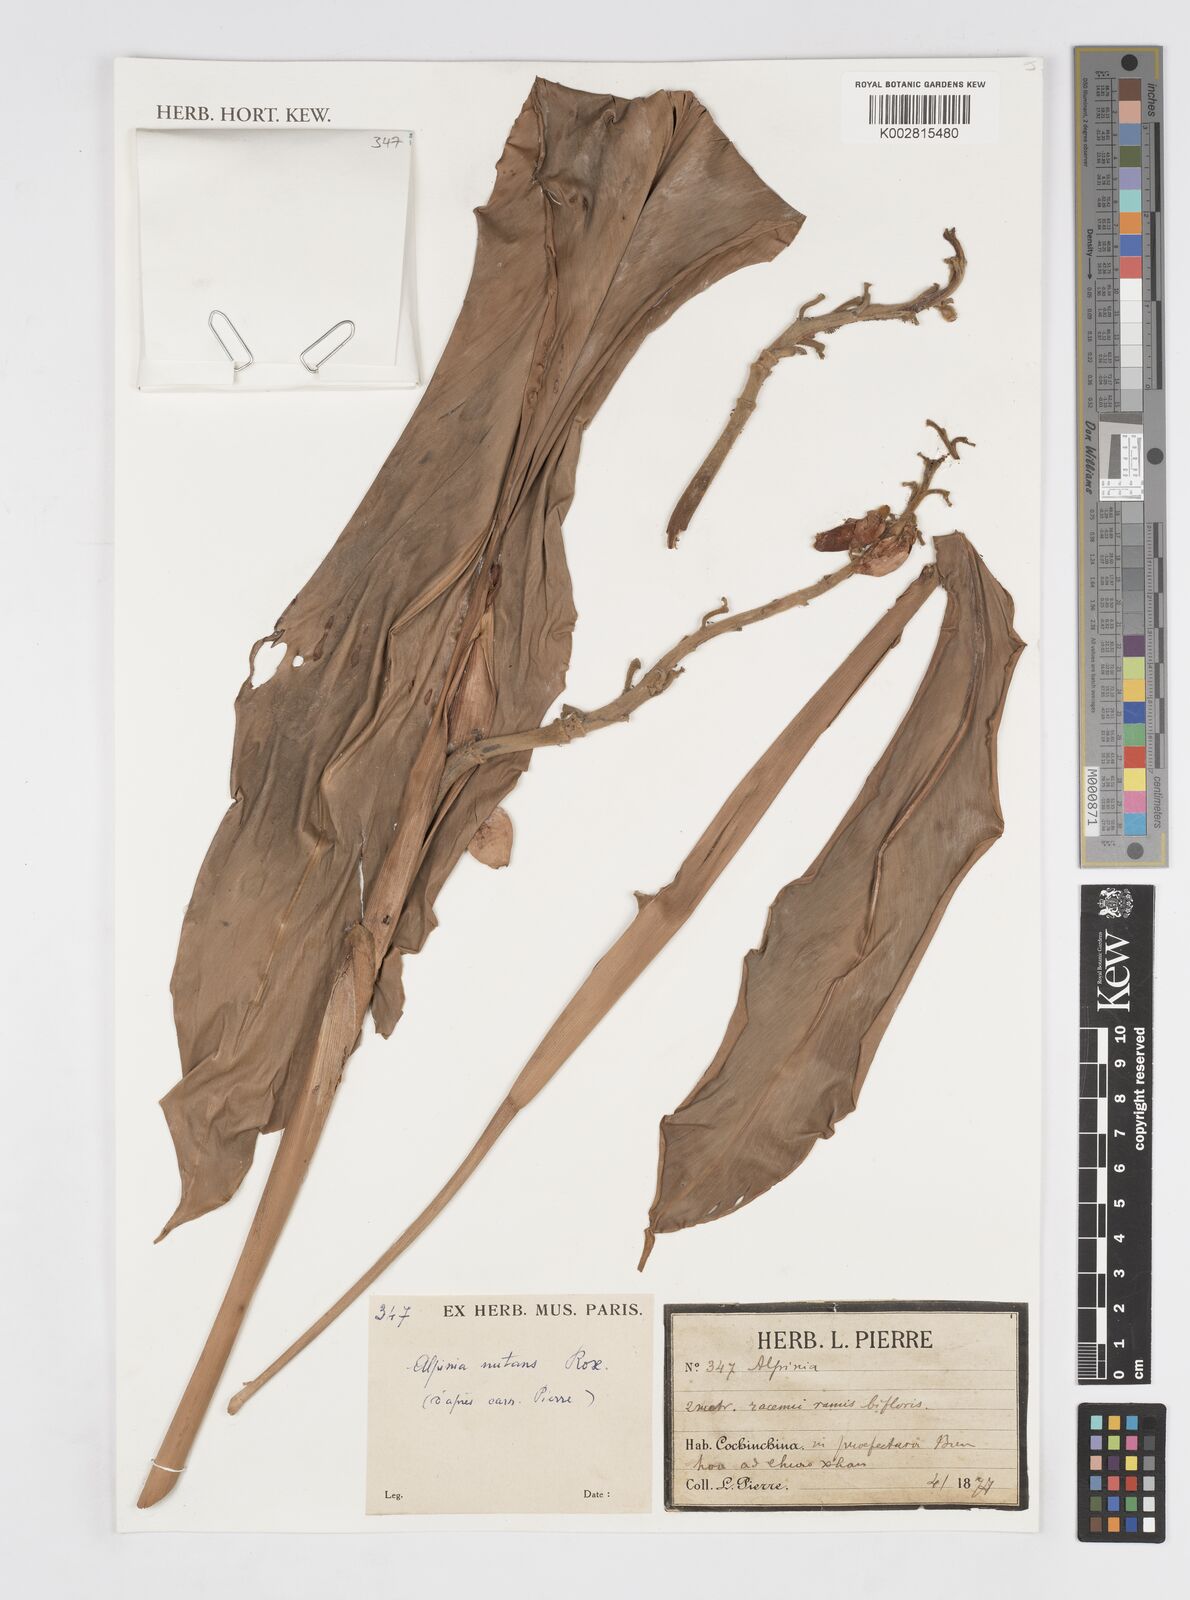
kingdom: Plantae
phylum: Tracheophyta
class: Liliopsida
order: Zingiberales
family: Zingiberaceae
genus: Alpinia
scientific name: Alpinia nutans
